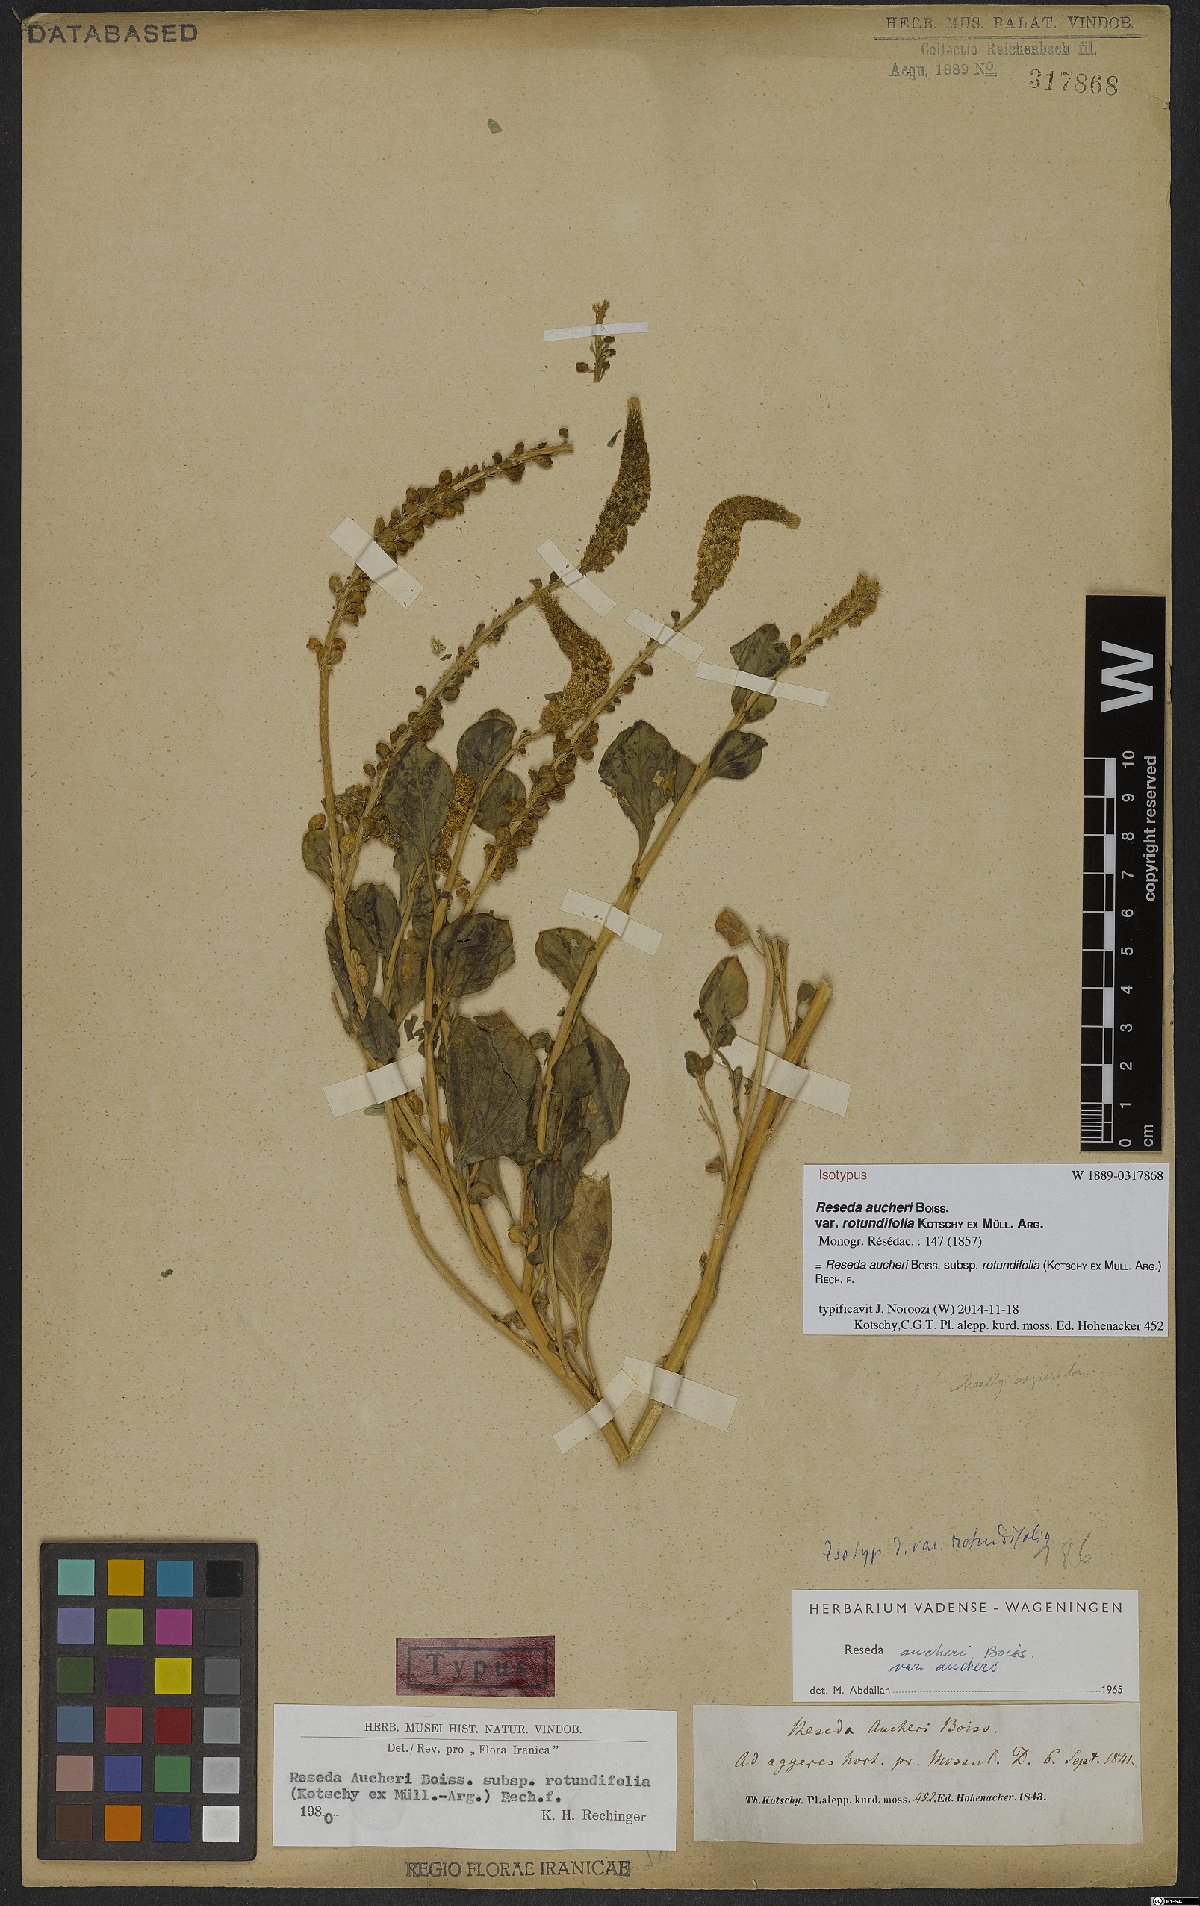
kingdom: Plantae
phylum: Tracheophyta
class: Magnoliopsida
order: Brassicales
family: Resedaceae
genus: Reseda
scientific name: Reseda aucheri
